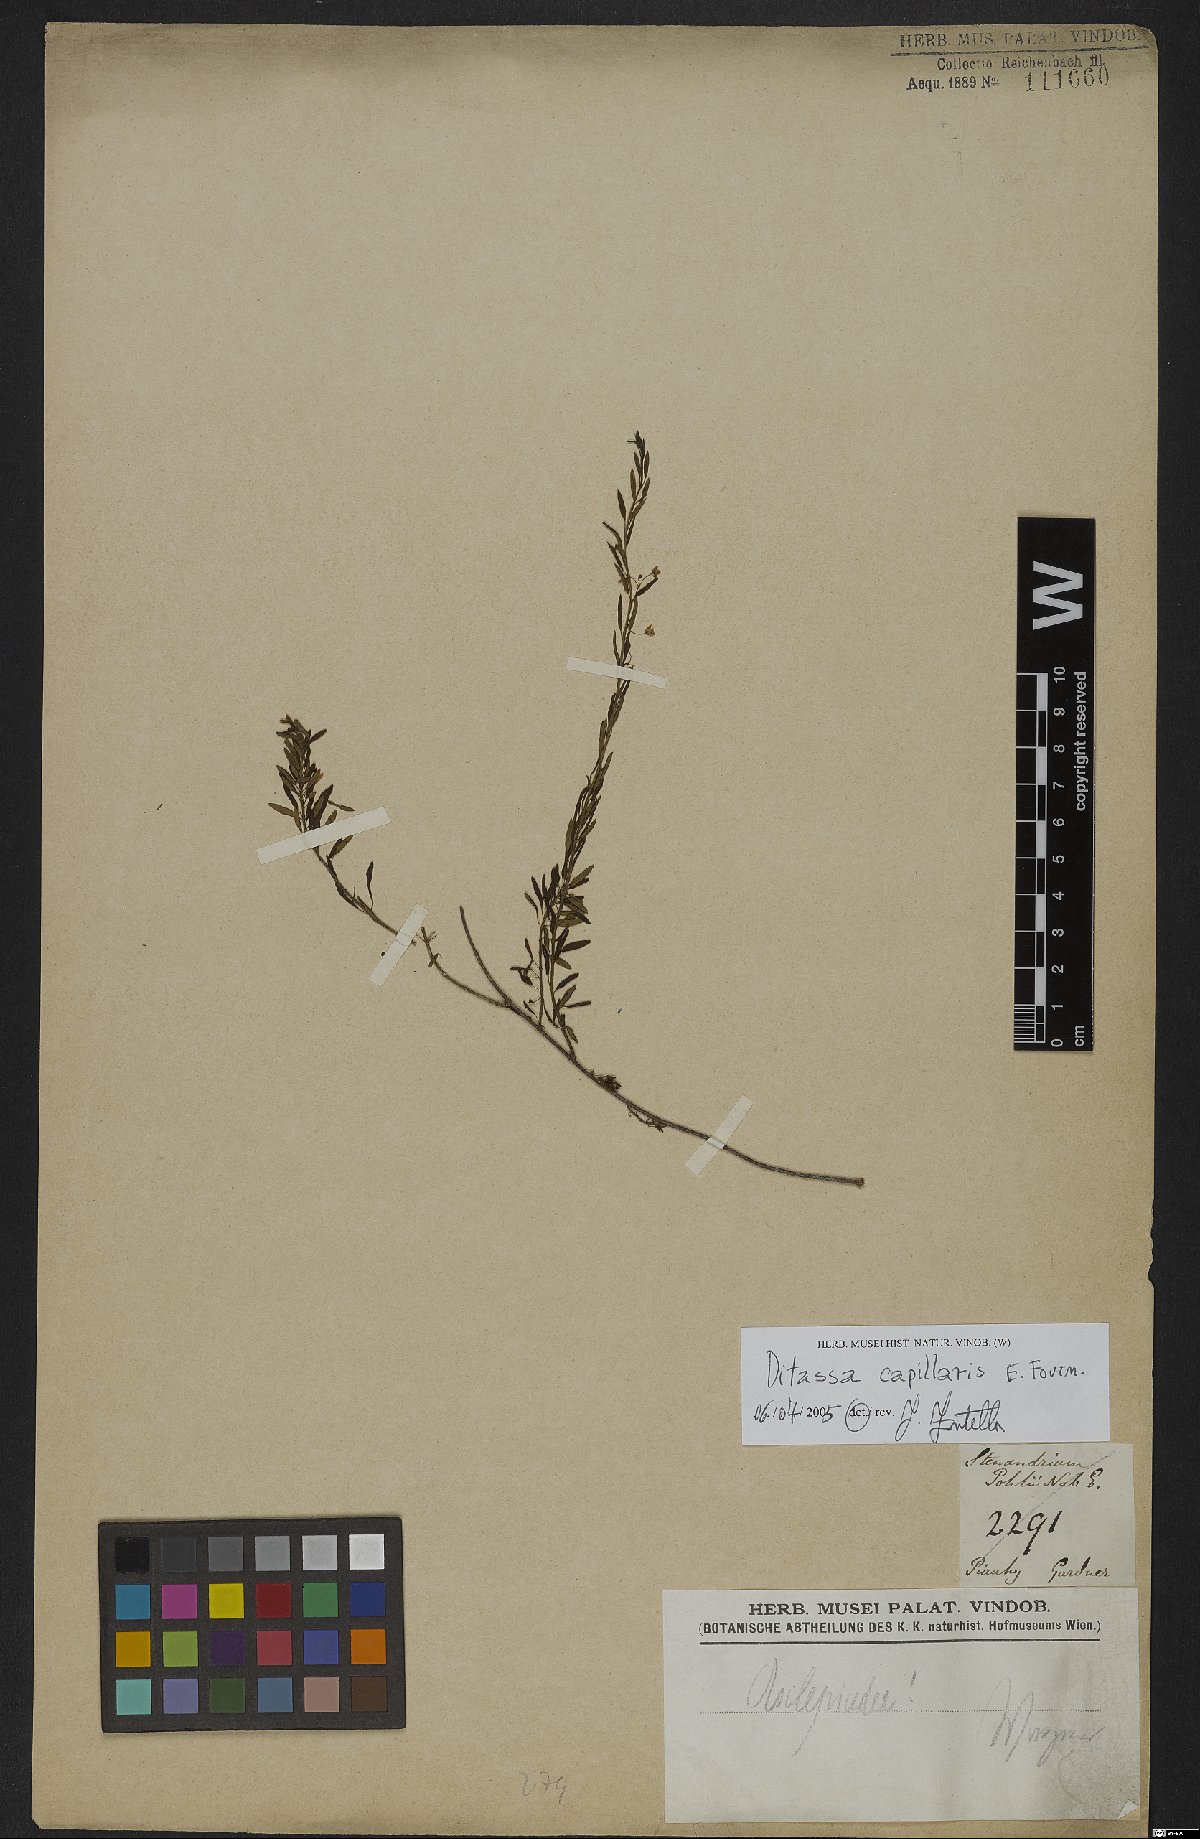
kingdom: Plantae
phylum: Tracheophyta
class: Magnoliopsida
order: Gentianales
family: Apocynaceae
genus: Ditassa
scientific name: Ditassa capillaris
